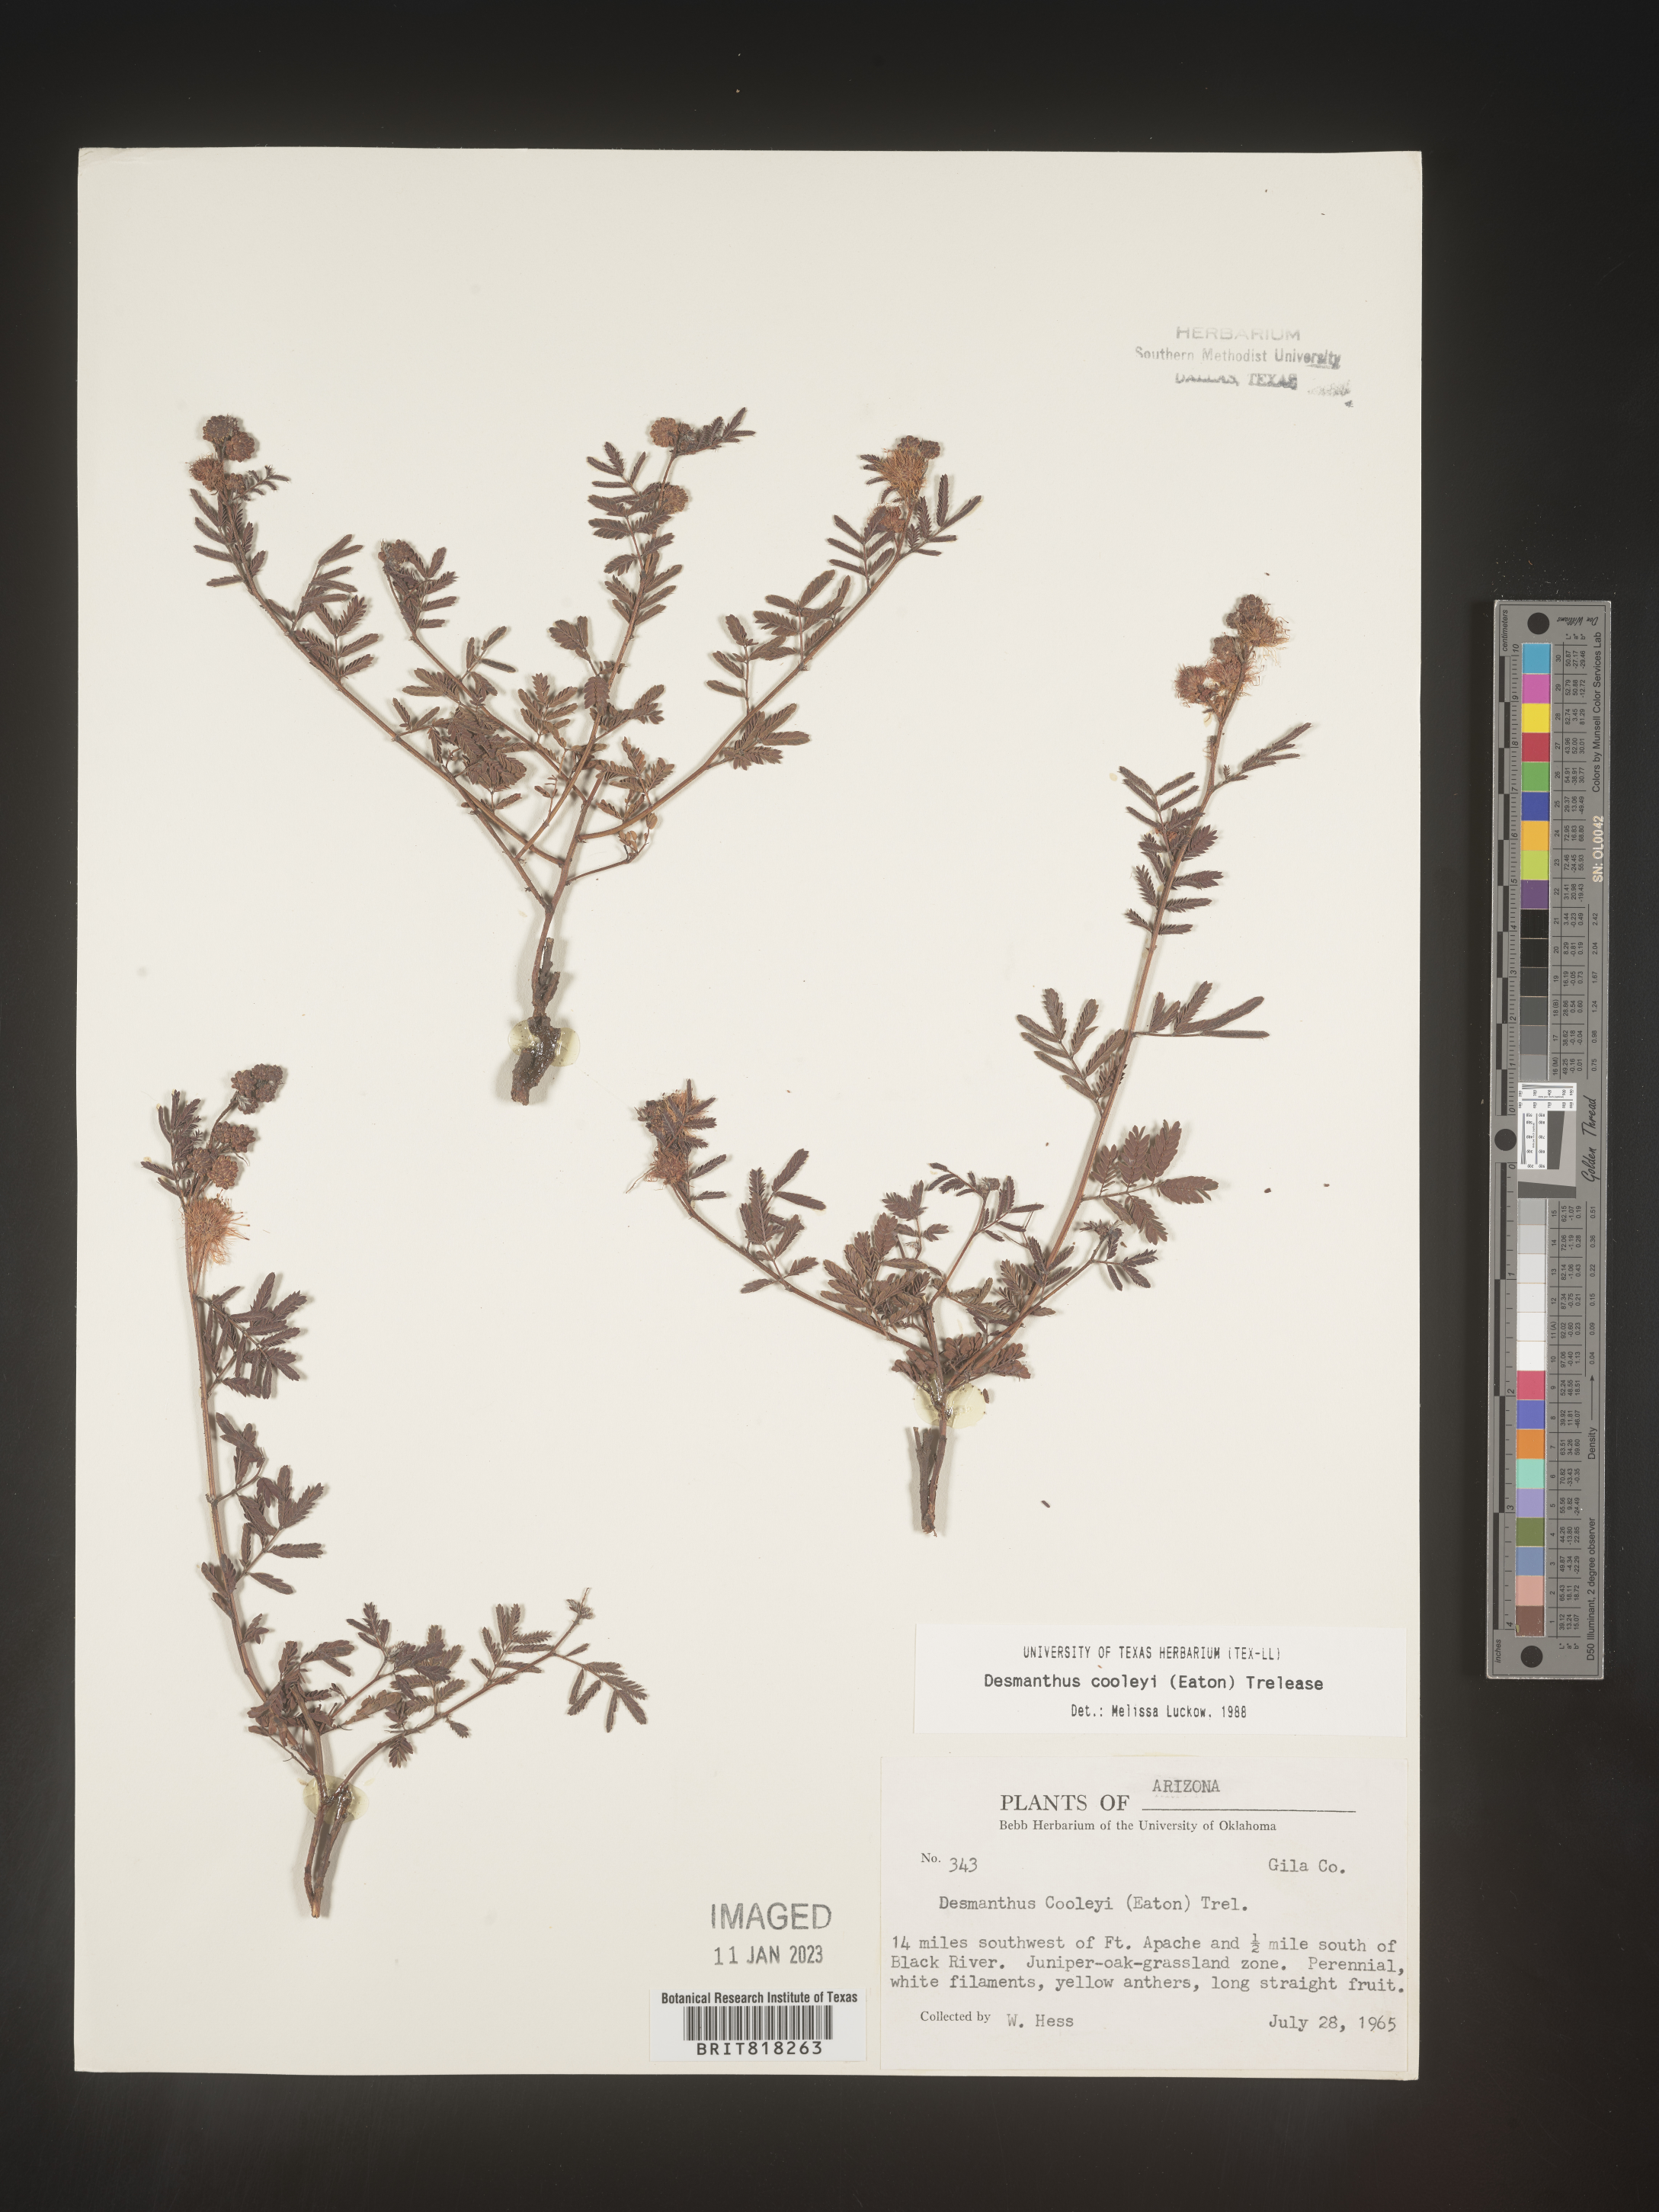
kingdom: Plantae
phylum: Tracheophyta
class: Magnoliopsida
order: Fabales
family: Fabaceae
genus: Desmanthus
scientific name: Desmanthus cooleyi
